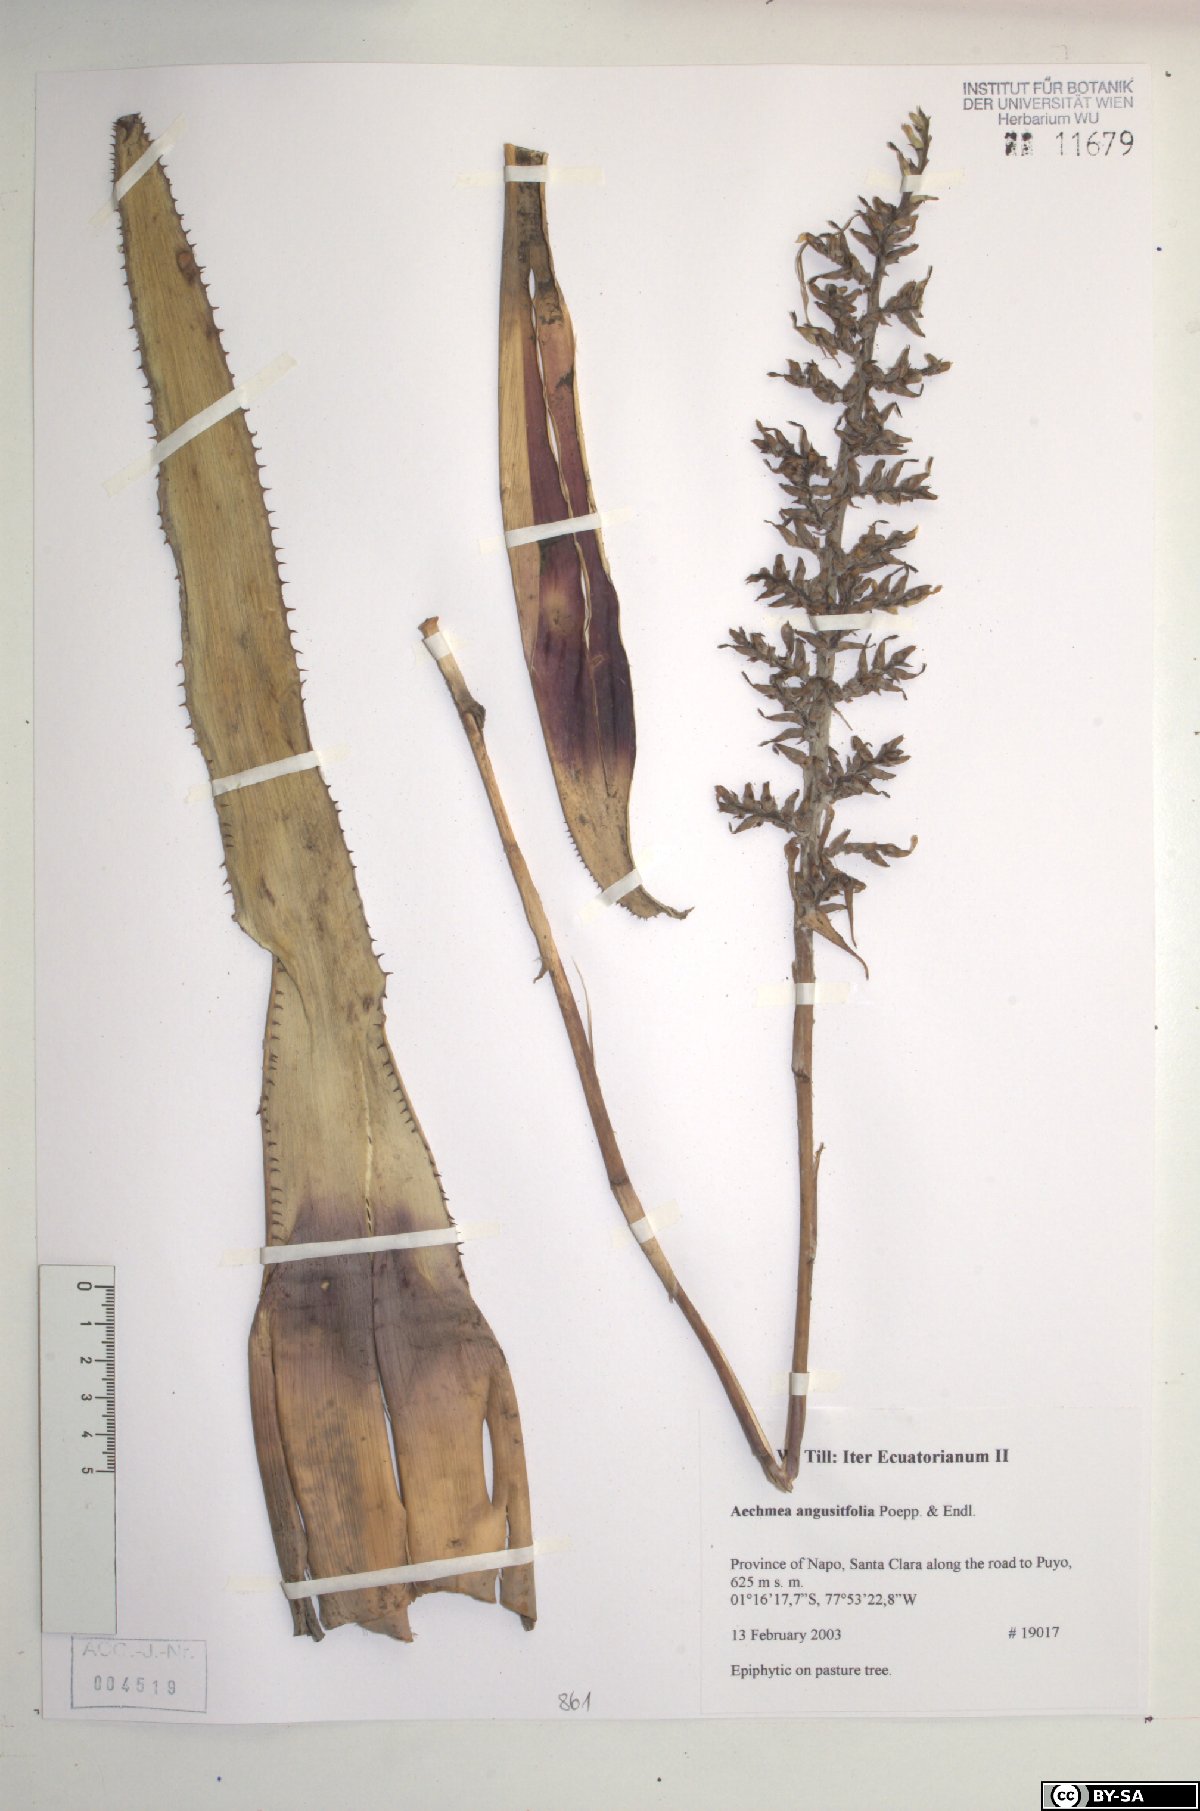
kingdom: Plantae
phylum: Tracheophyta
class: Liliopsida
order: Poales
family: Bromeliaceae
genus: Aechmea
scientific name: Aechmea angustifolia
